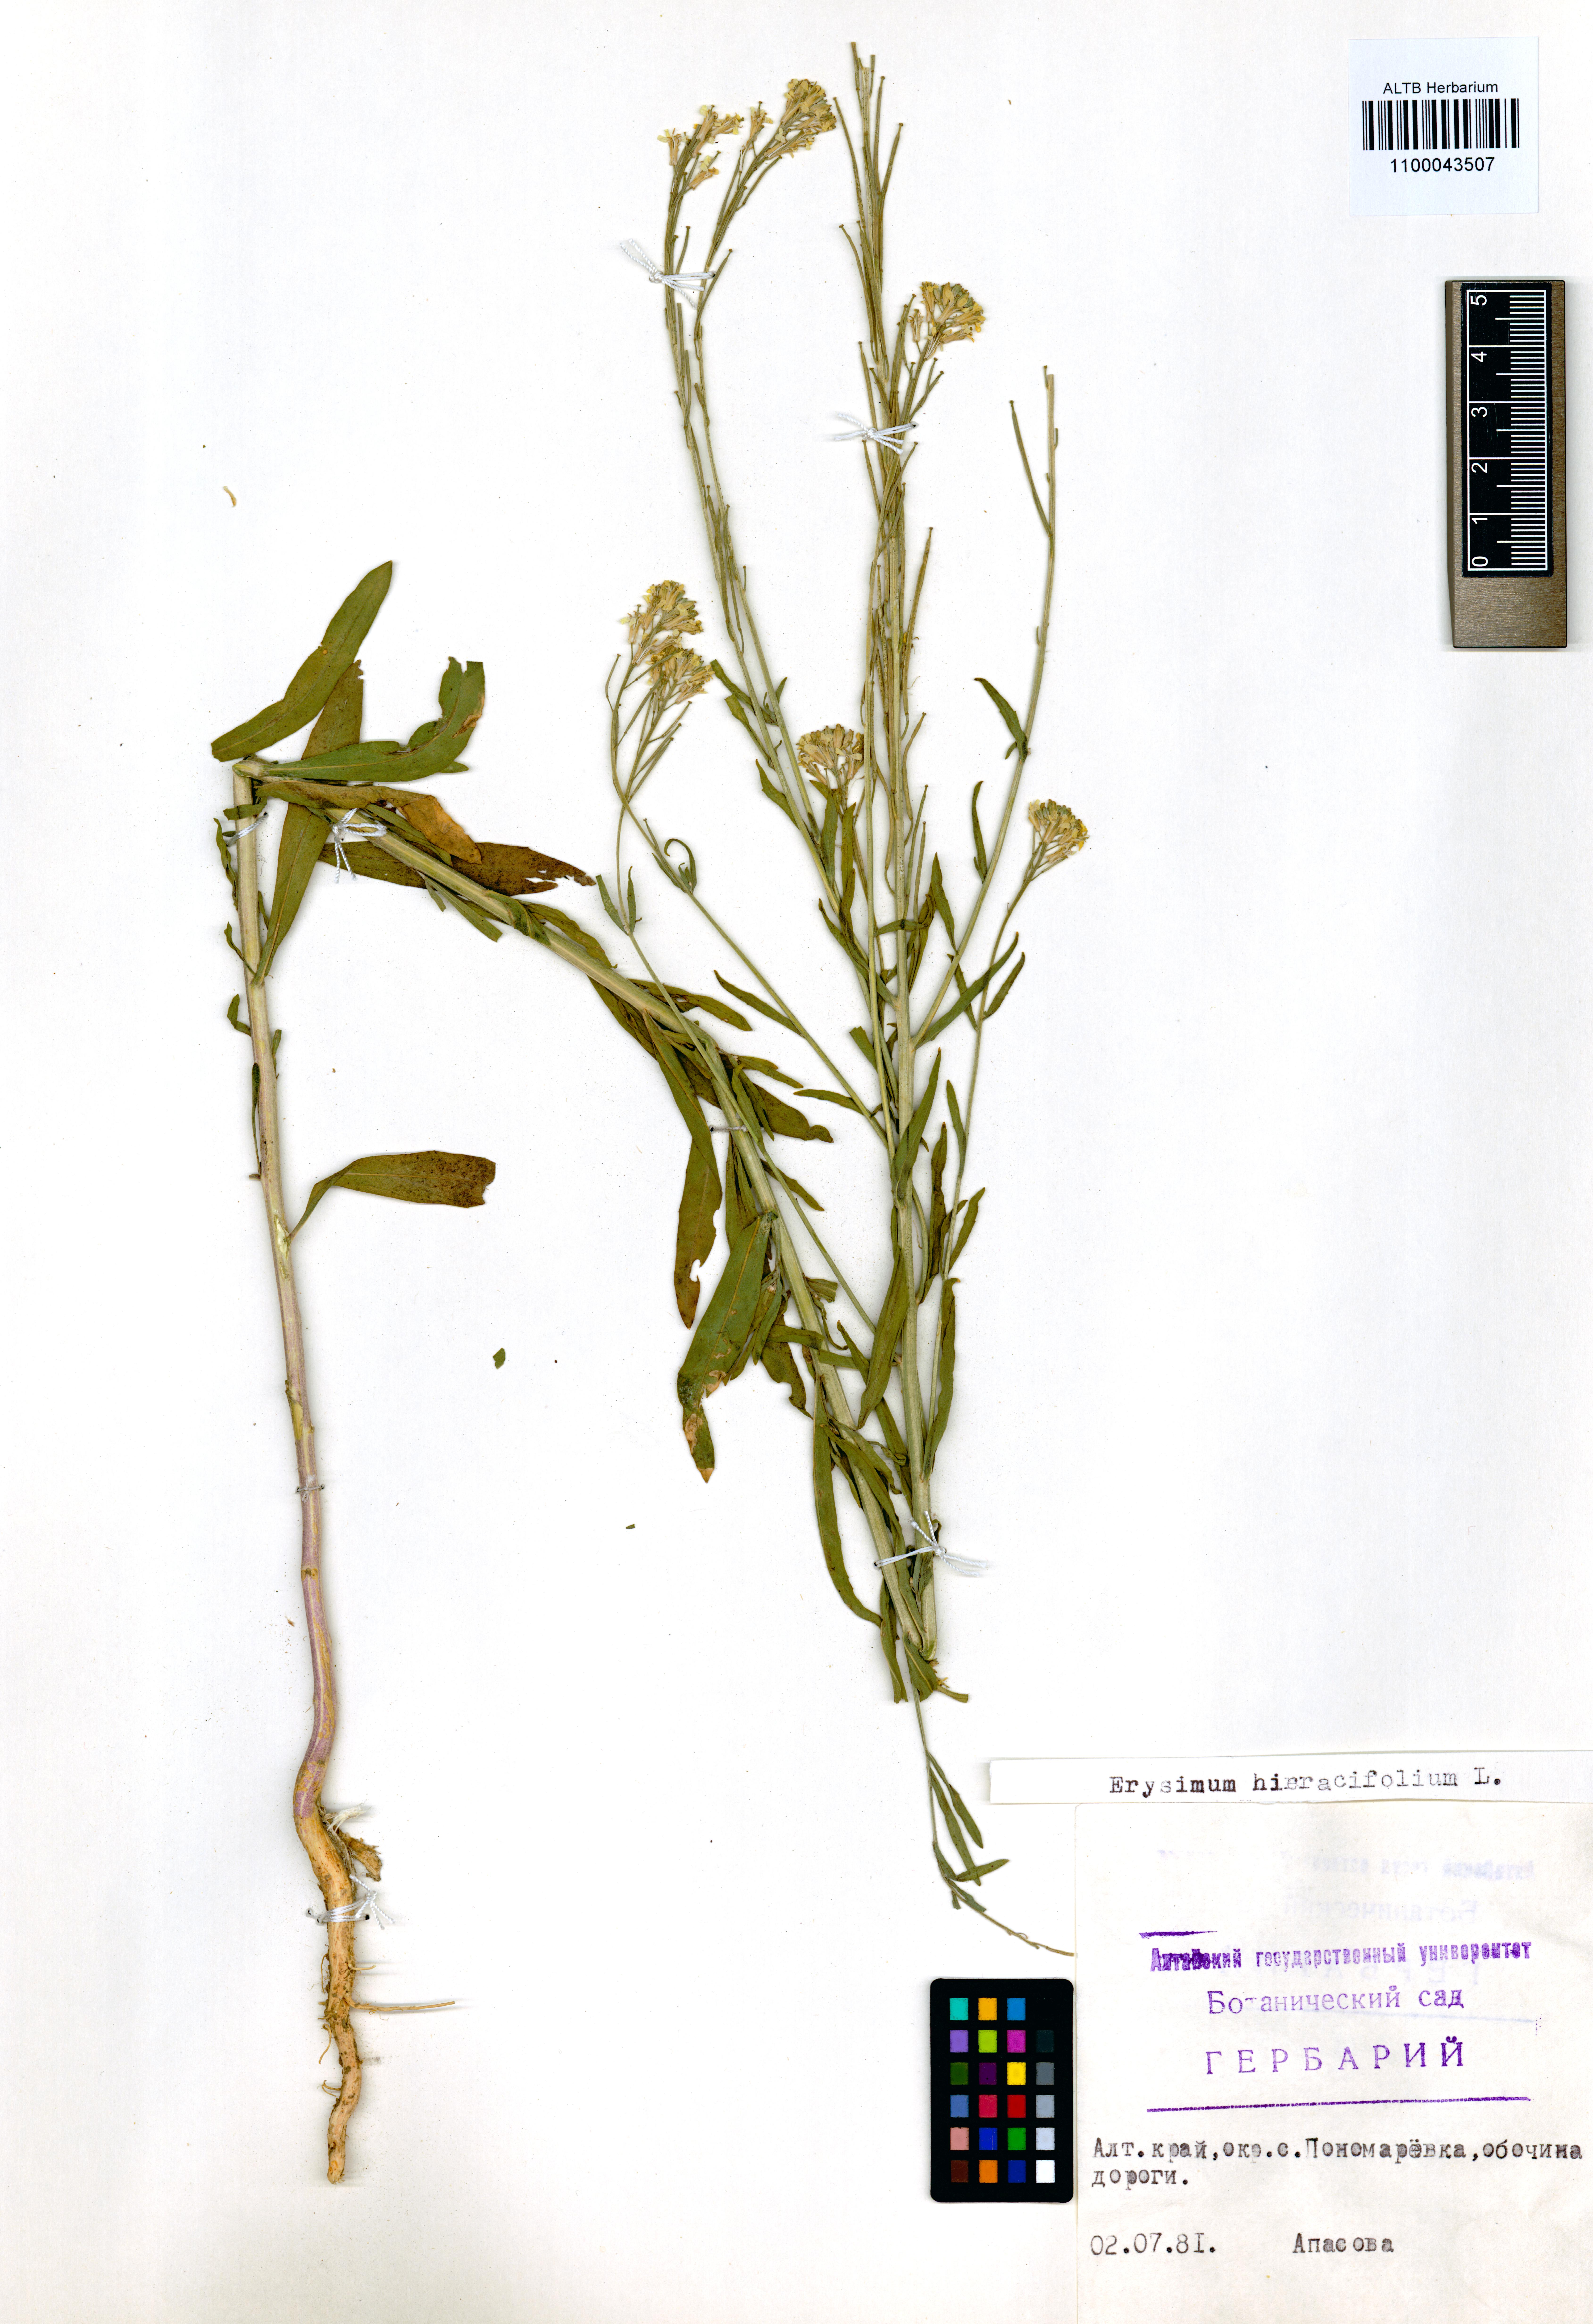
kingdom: Plantae
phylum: Tracheophyta
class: Magnoliopsida
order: Brassicales
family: Brassicaceae
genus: Erysimum
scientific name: Erysimum hieraciifolium
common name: European wallflower
